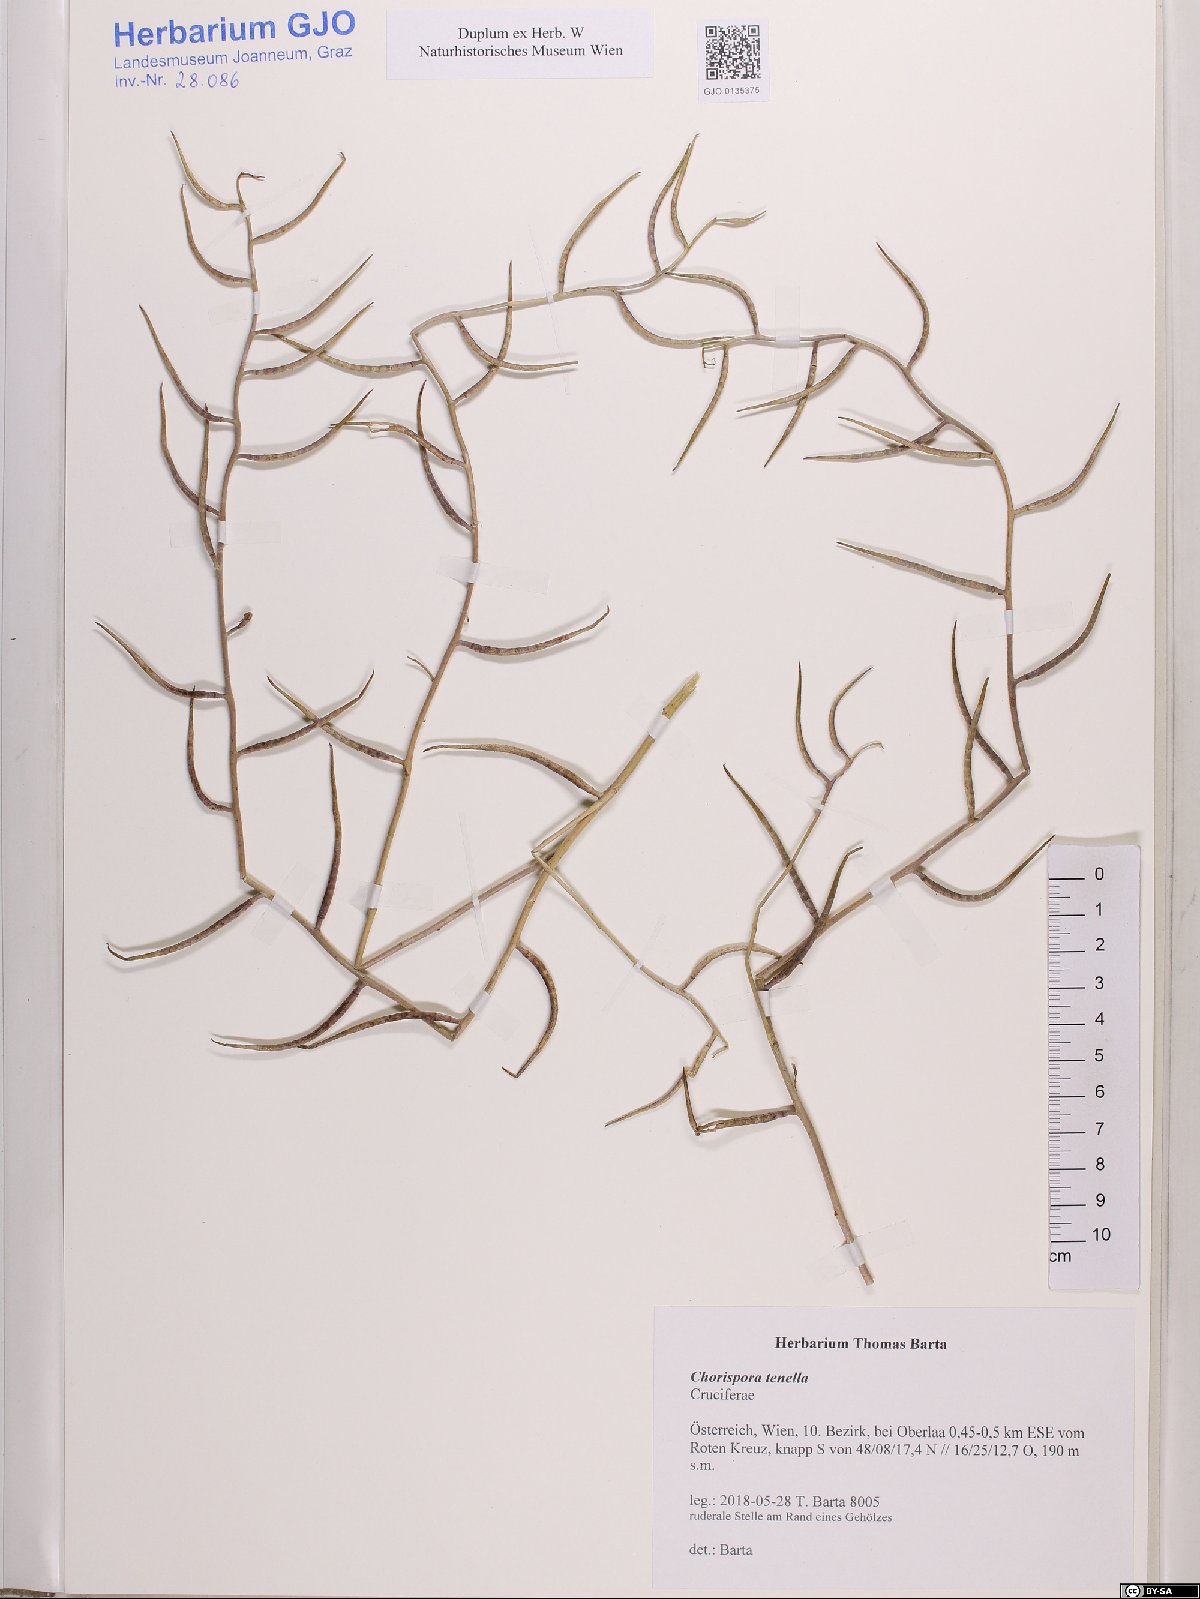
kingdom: Plantae
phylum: Tracheophyta
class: Magnoliopsida
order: Brassicales
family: Brassicaceae
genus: Chorispora
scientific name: Chorispora tenella
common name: Crossflower
